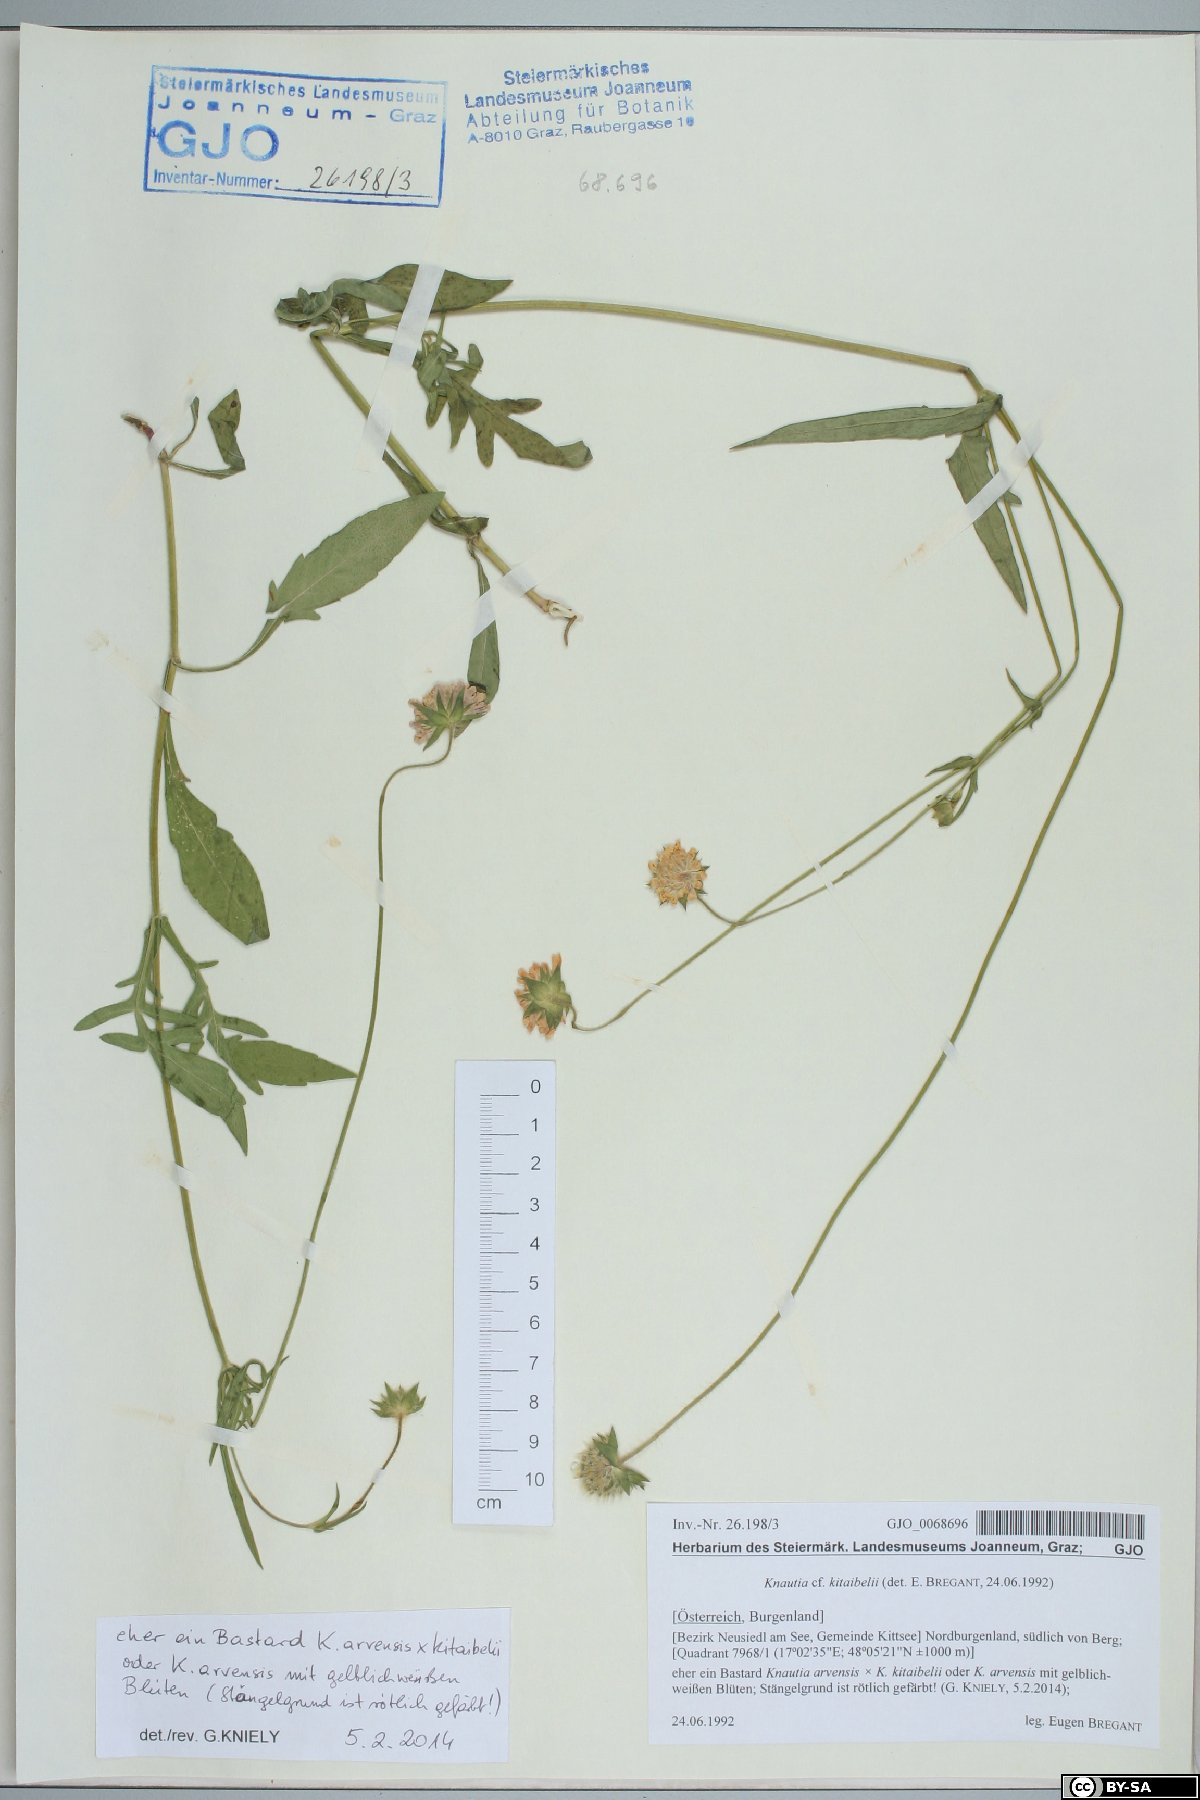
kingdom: Plantae
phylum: Tracheophyta
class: Magnoliopsida
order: Dipsacales
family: Caprifoliaceae
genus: Knautia
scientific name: Knautia kitaibelii
